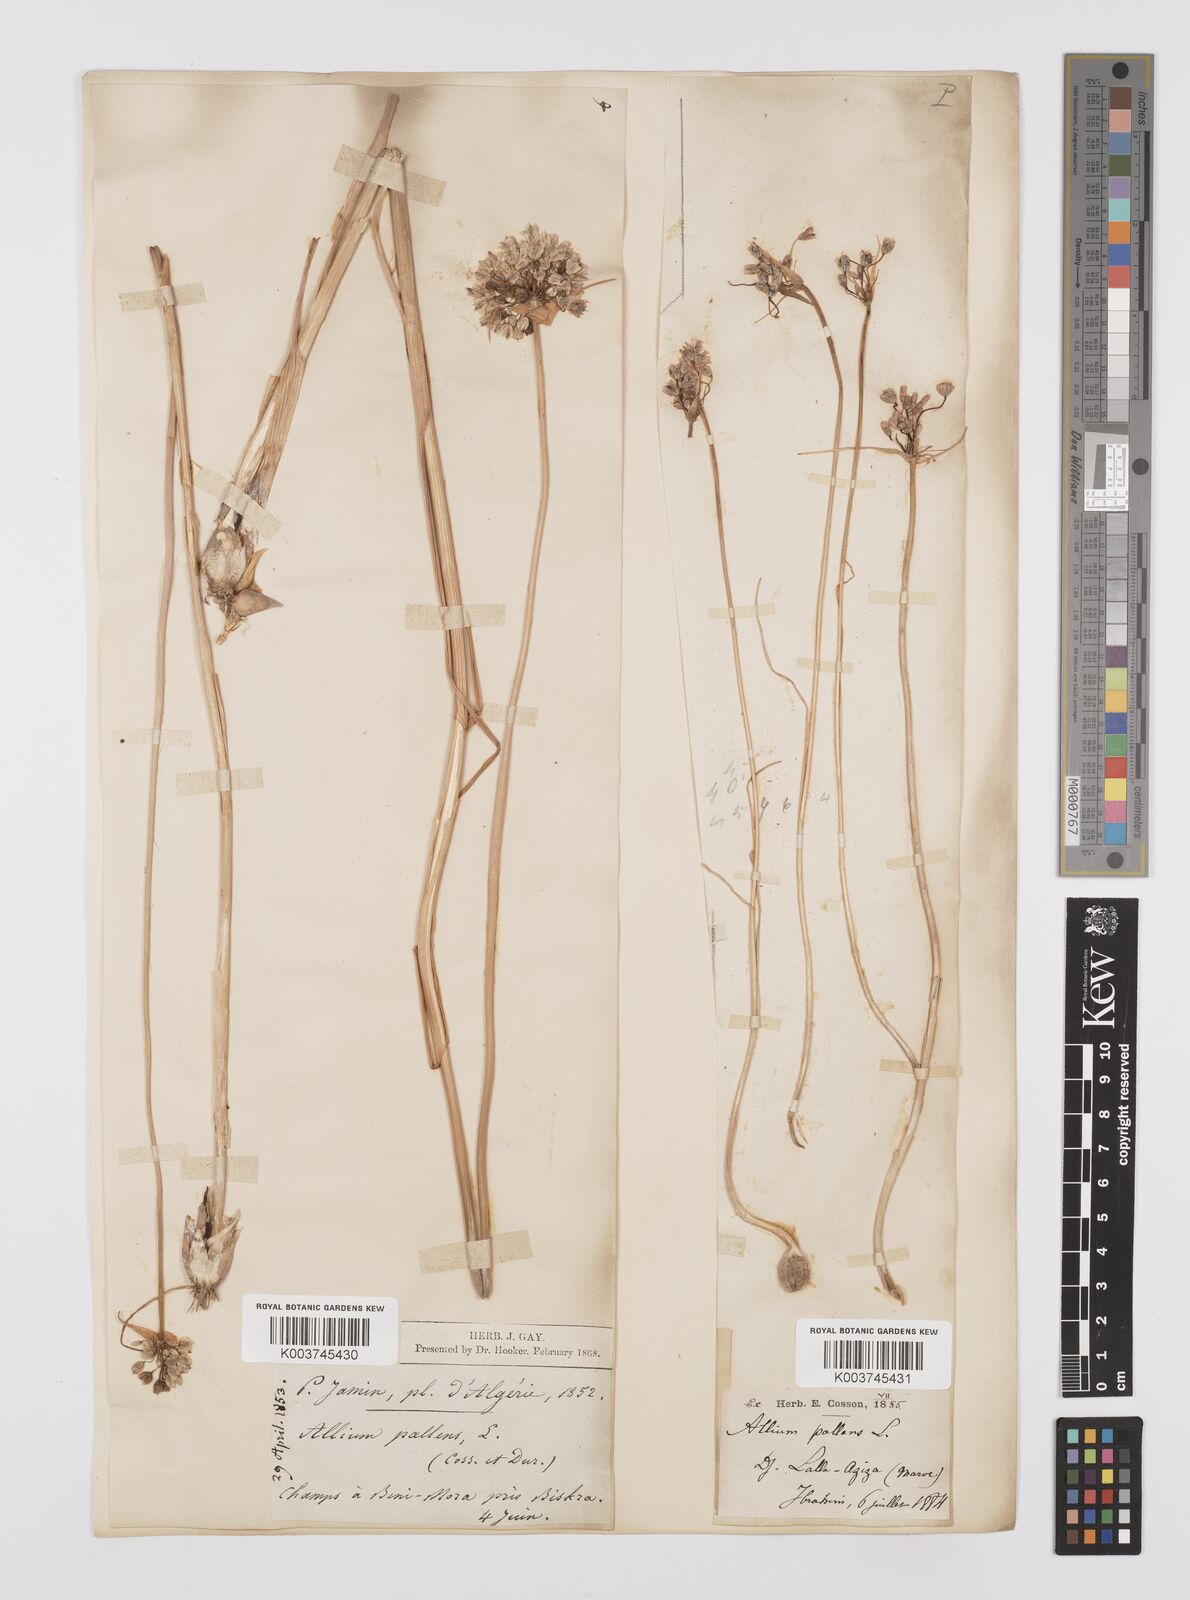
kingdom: Plantae
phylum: Tracheophyta
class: Liliopsida
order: Asparagales
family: Amaryllidaceae
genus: Allium
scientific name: Allium paniculatum
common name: Pale garlic
